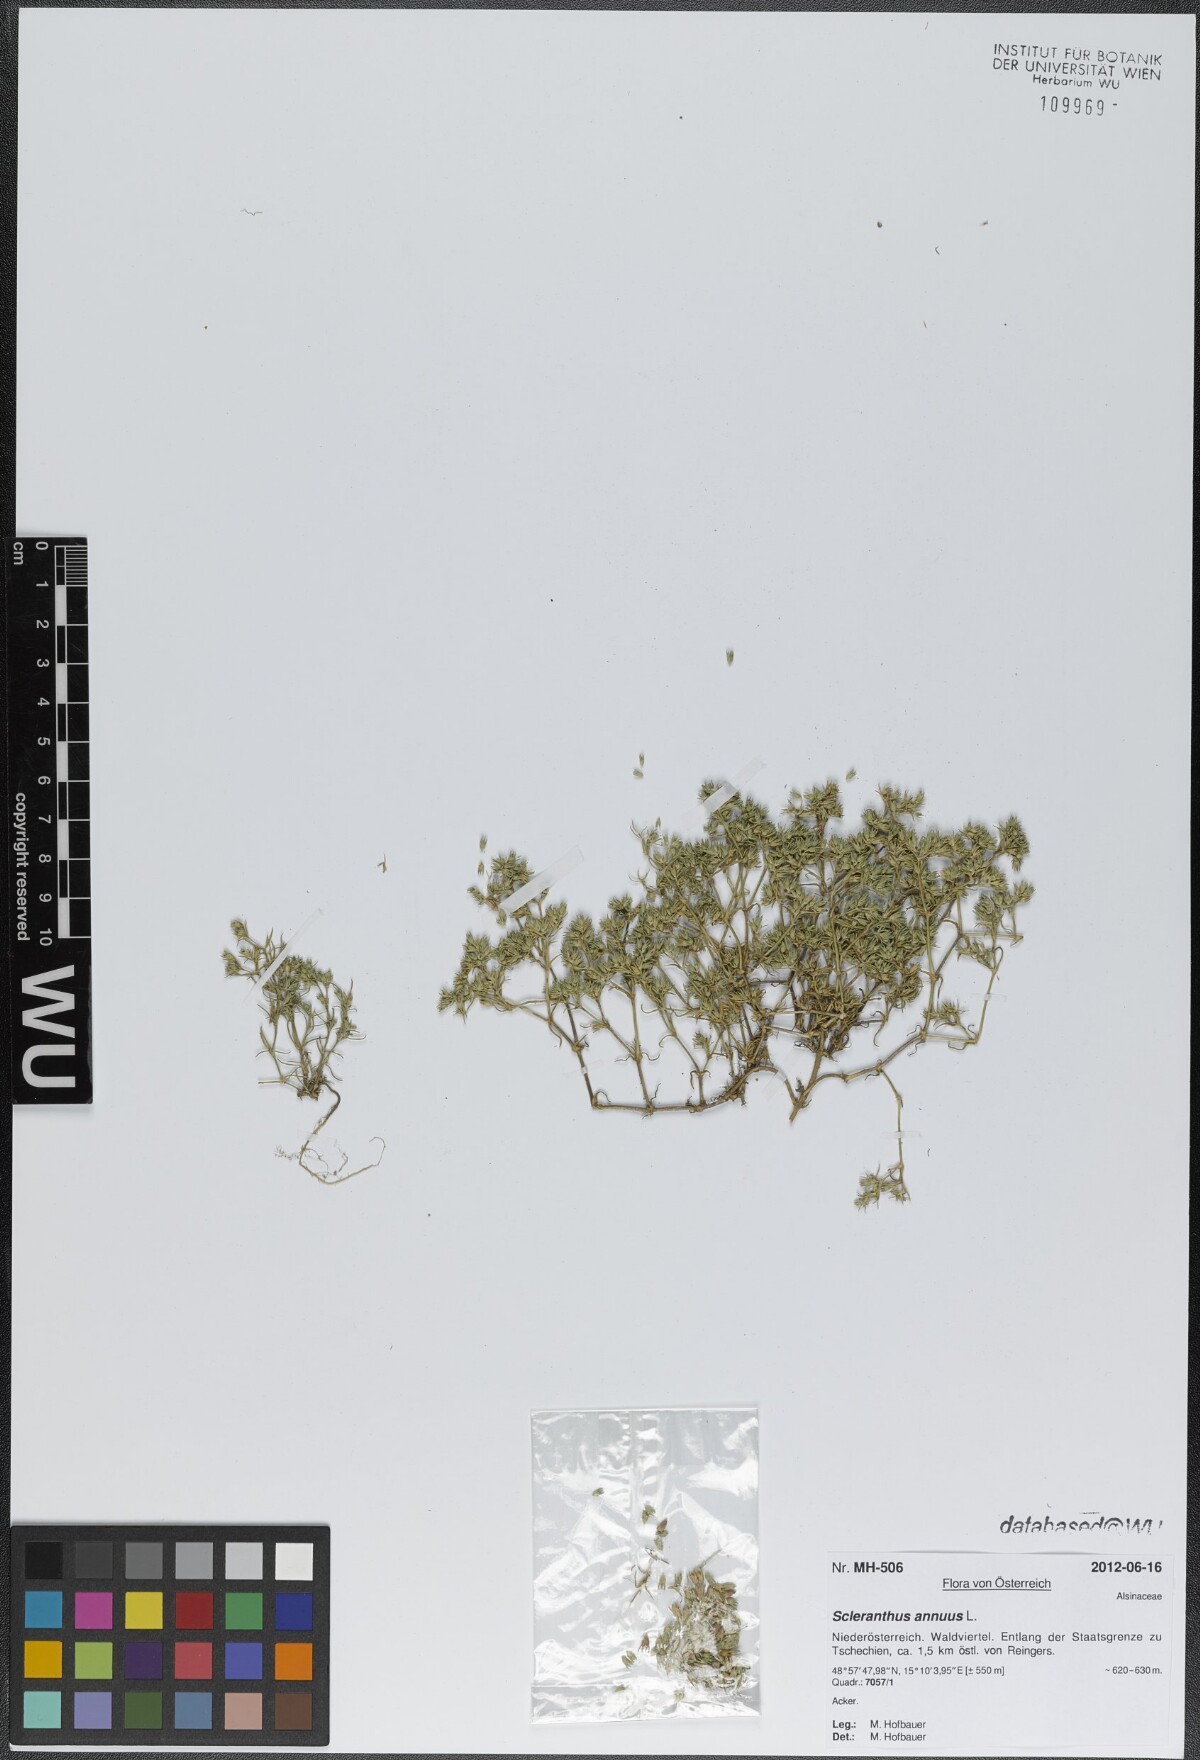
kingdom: Plantae
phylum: Tracheophyta
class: Magnoliopsida
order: Caryophyllales
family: Caryophyllaceae
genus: Scleranthus
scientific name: Scleranthus annuus
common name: Annual knawel
